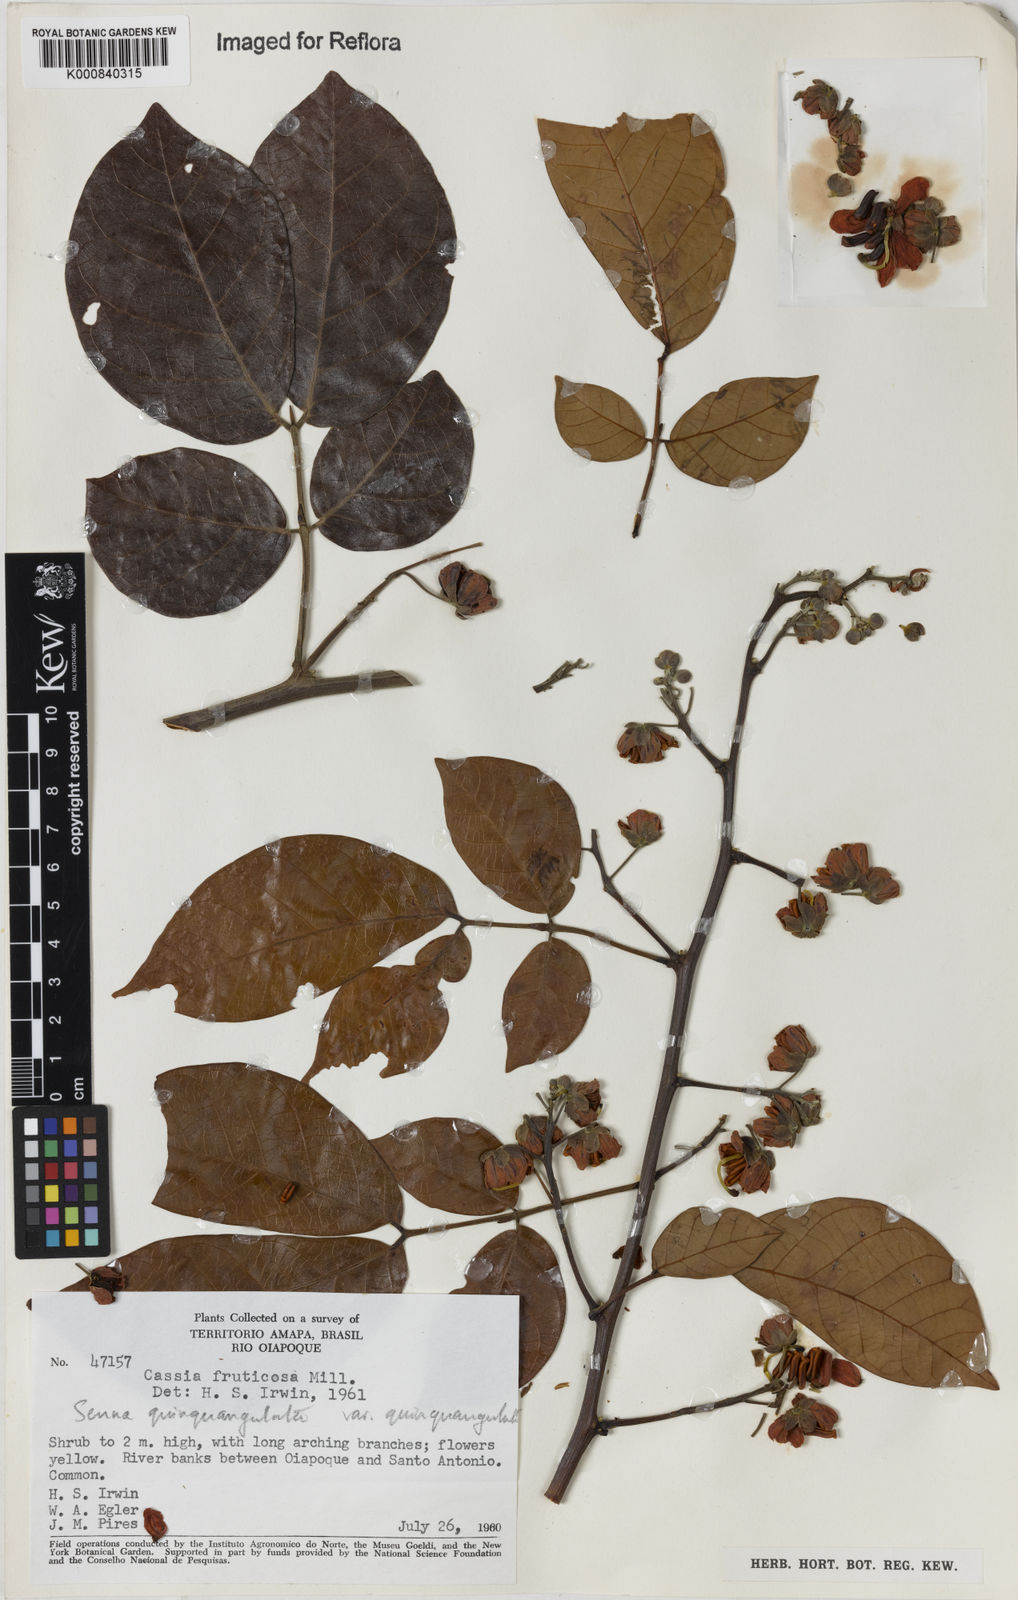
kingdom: Plantae
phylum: Tracheophyta
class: Magnoliopsida
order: Fabales
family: Fabaceae
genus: Senna
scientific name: Senna
